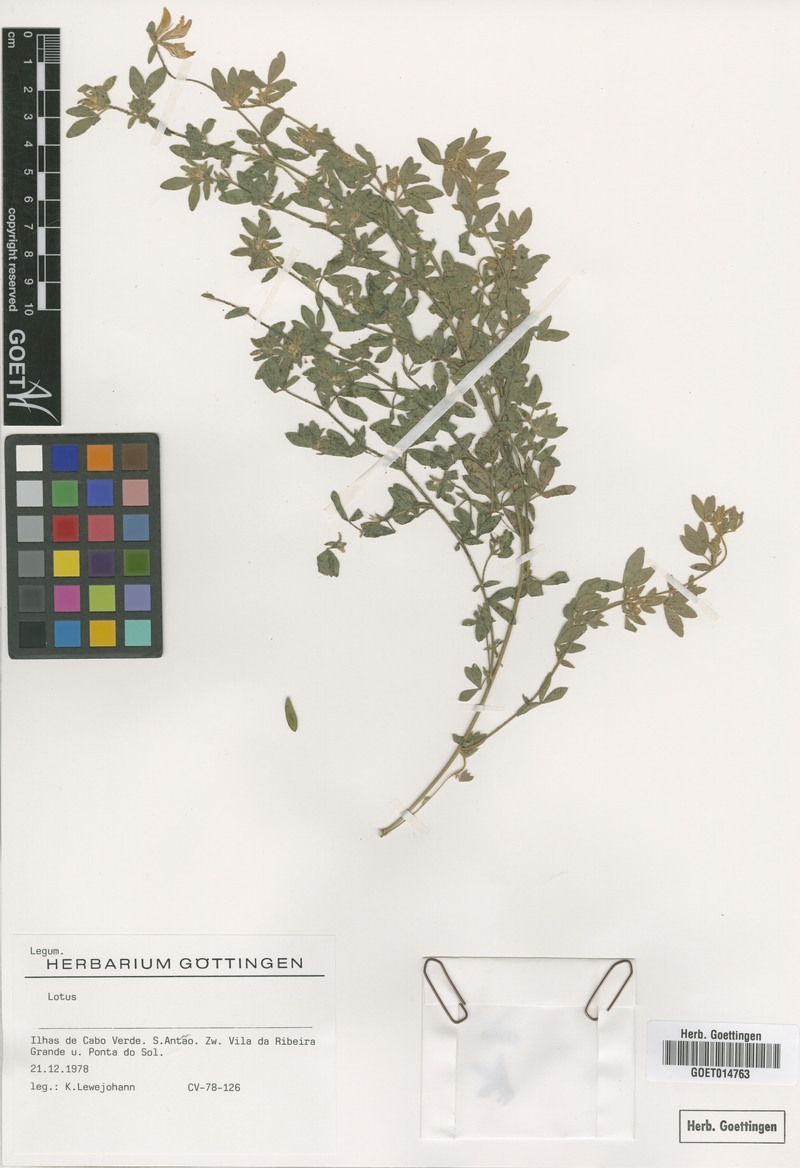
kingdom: Plantae
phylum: Tracheophyta
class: Magnoliopsida
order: Fabales
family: Fabaceae
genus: Lotus
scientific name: Lotus
